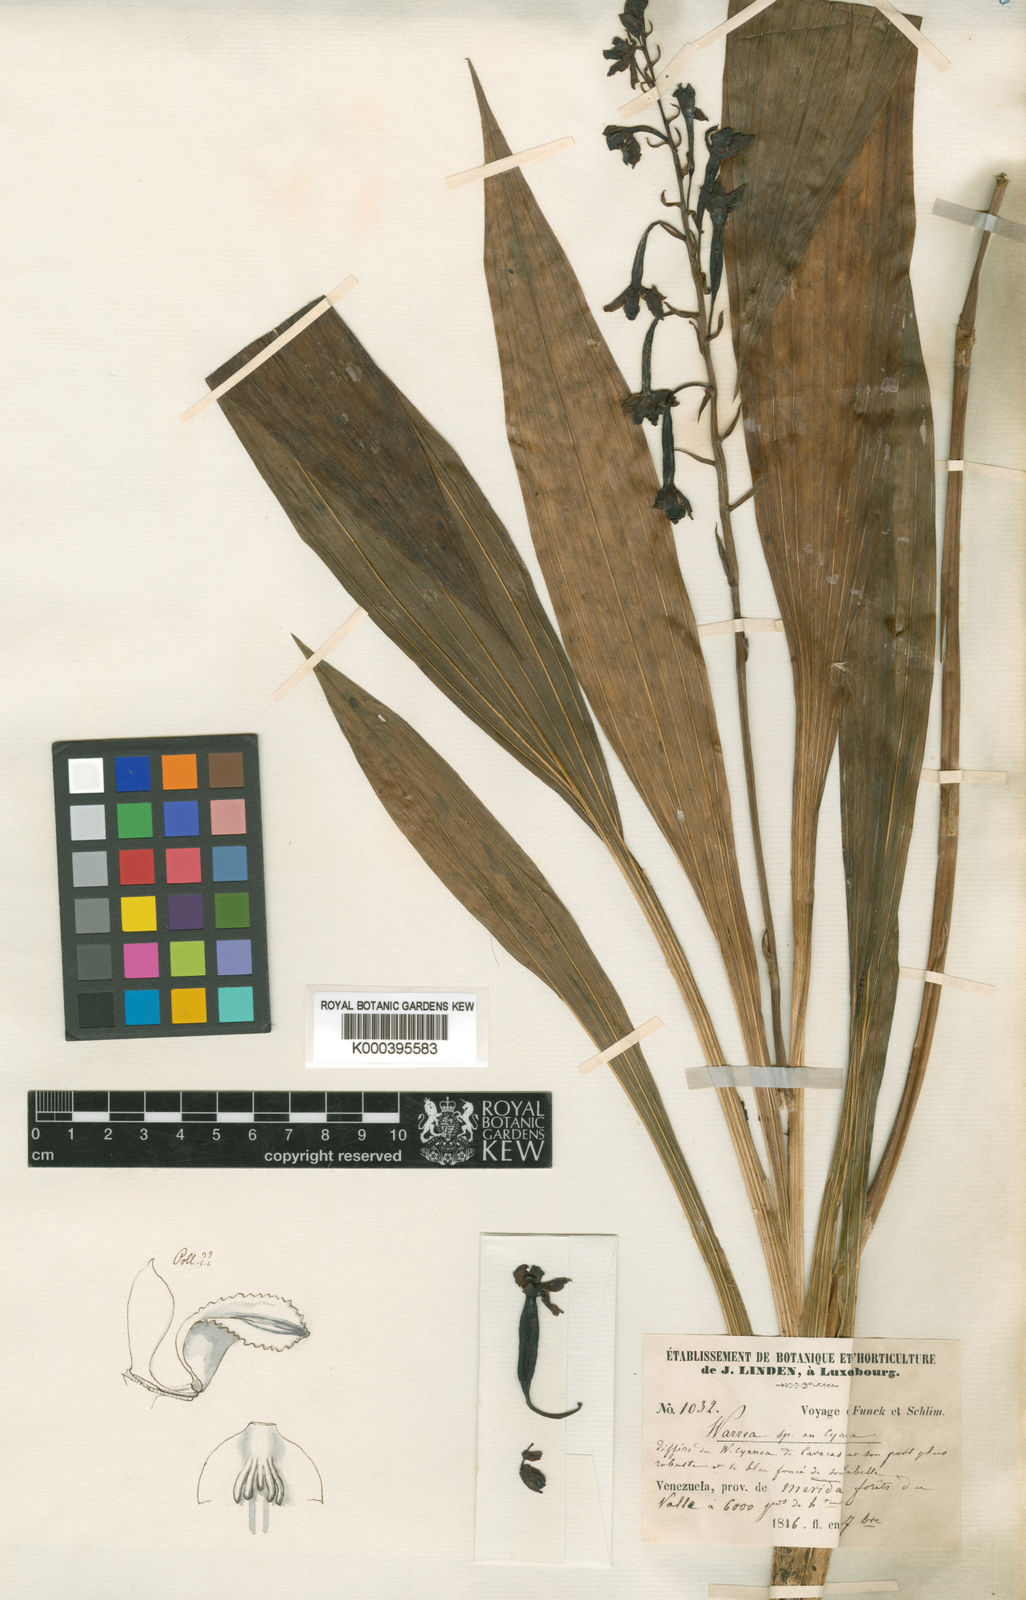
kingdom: Plantae
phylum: Tracheophyta
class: Liliopsida
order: Asparagales
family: Orchidaceae
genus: Warreella
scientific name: Warreella cyanea
